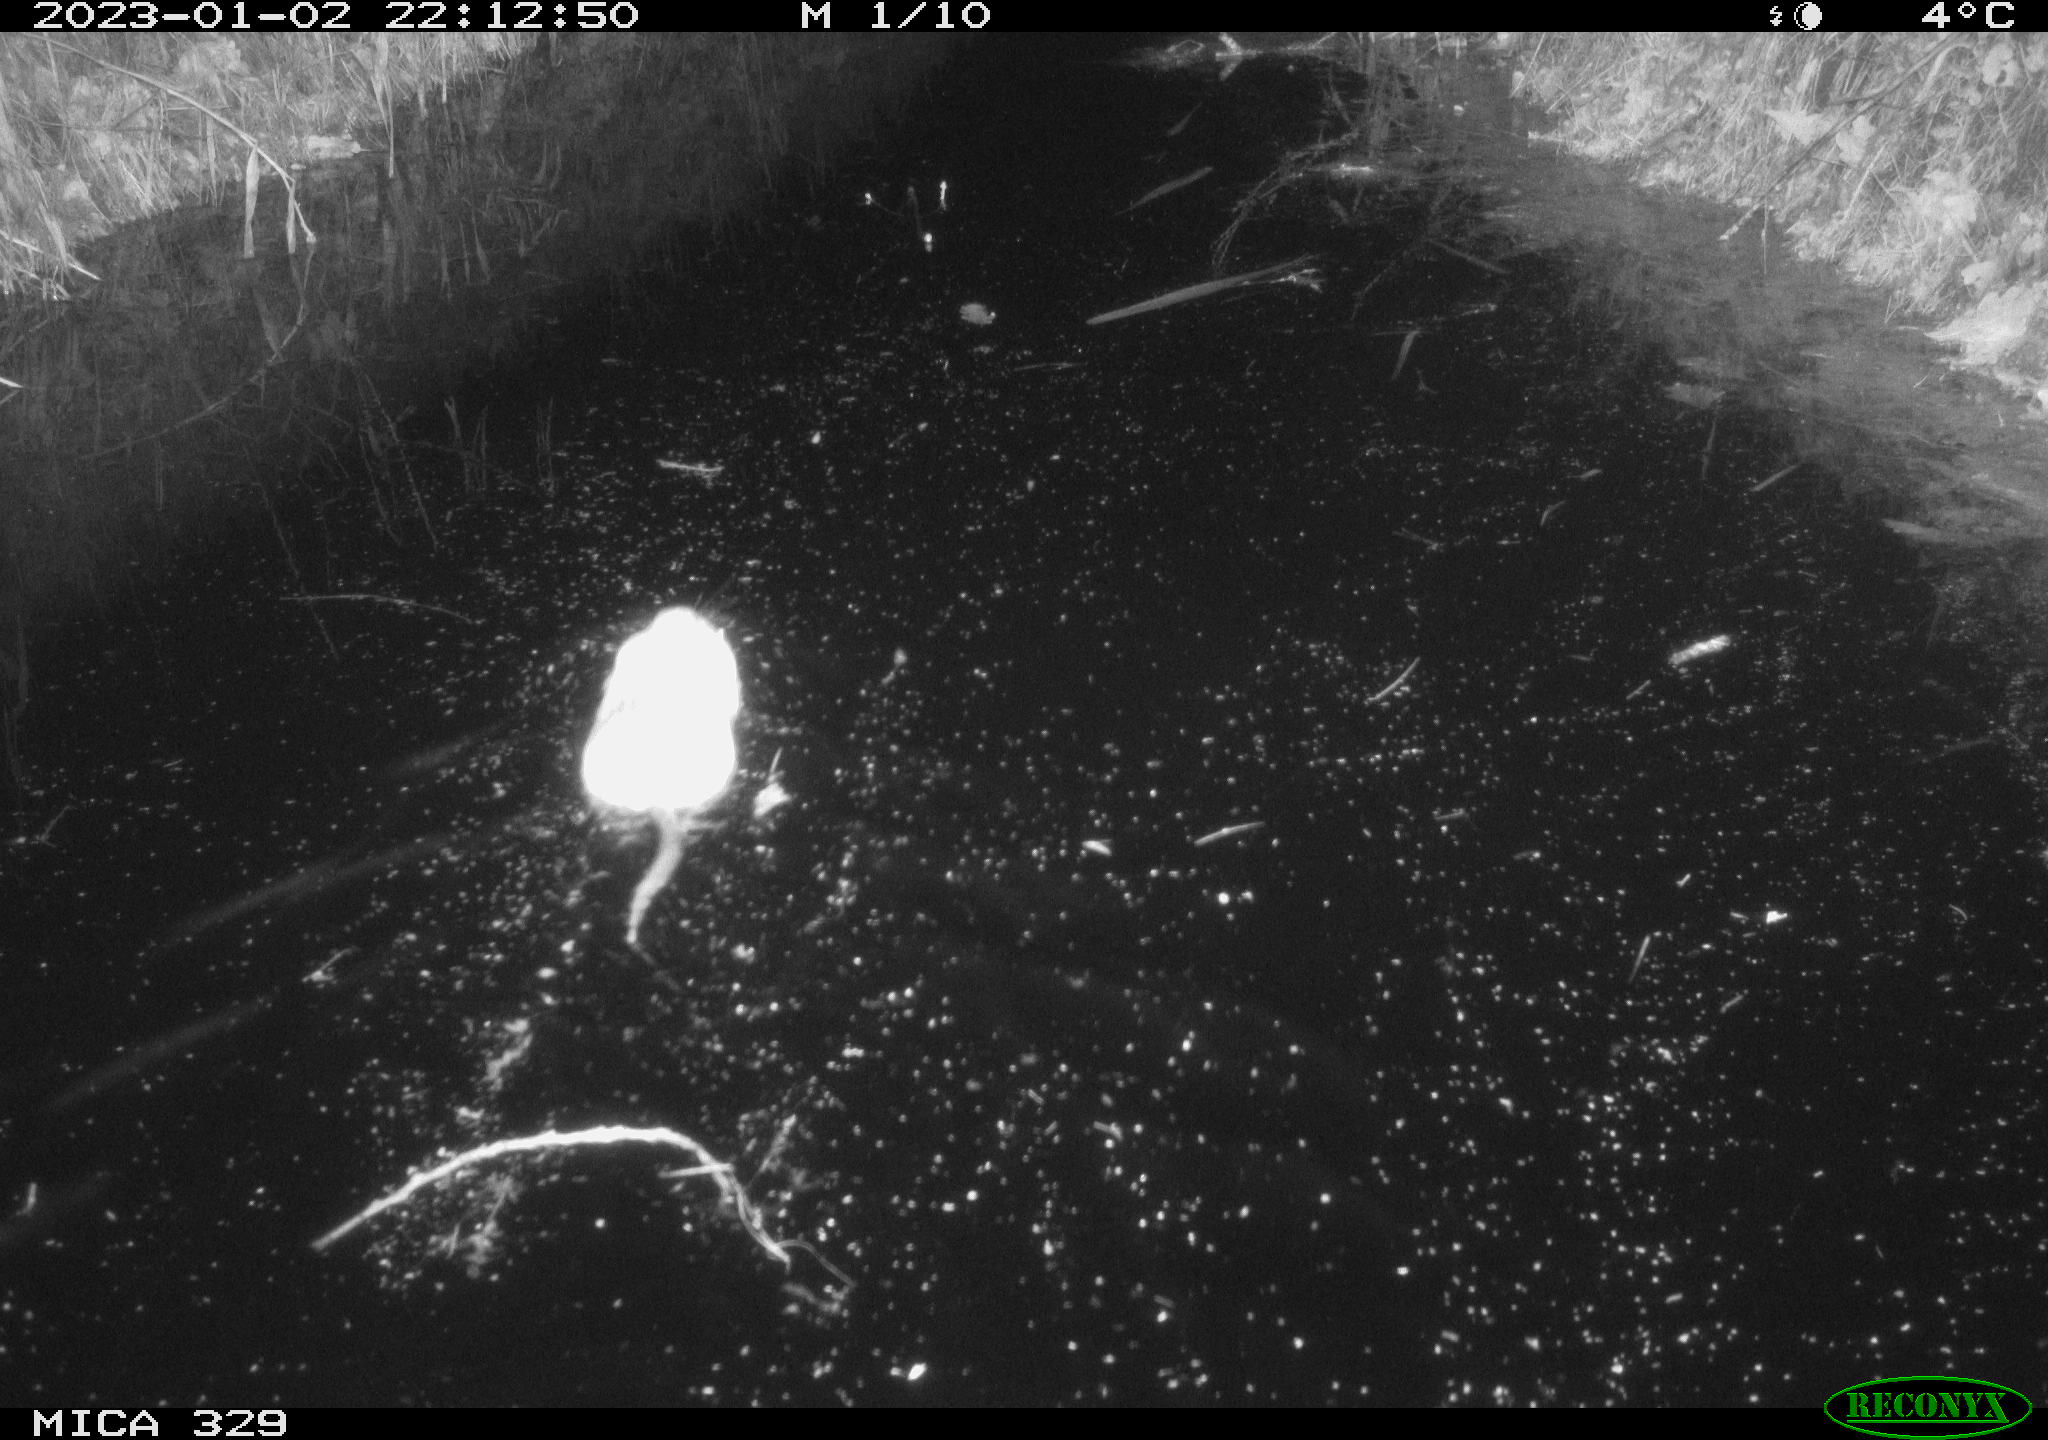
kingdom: Animalia
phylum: Chordata
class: Mammalia
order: Rodentia
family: Cricetidae
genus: Ondatra
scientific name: Ondatra zibethicus
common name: Muskrat
